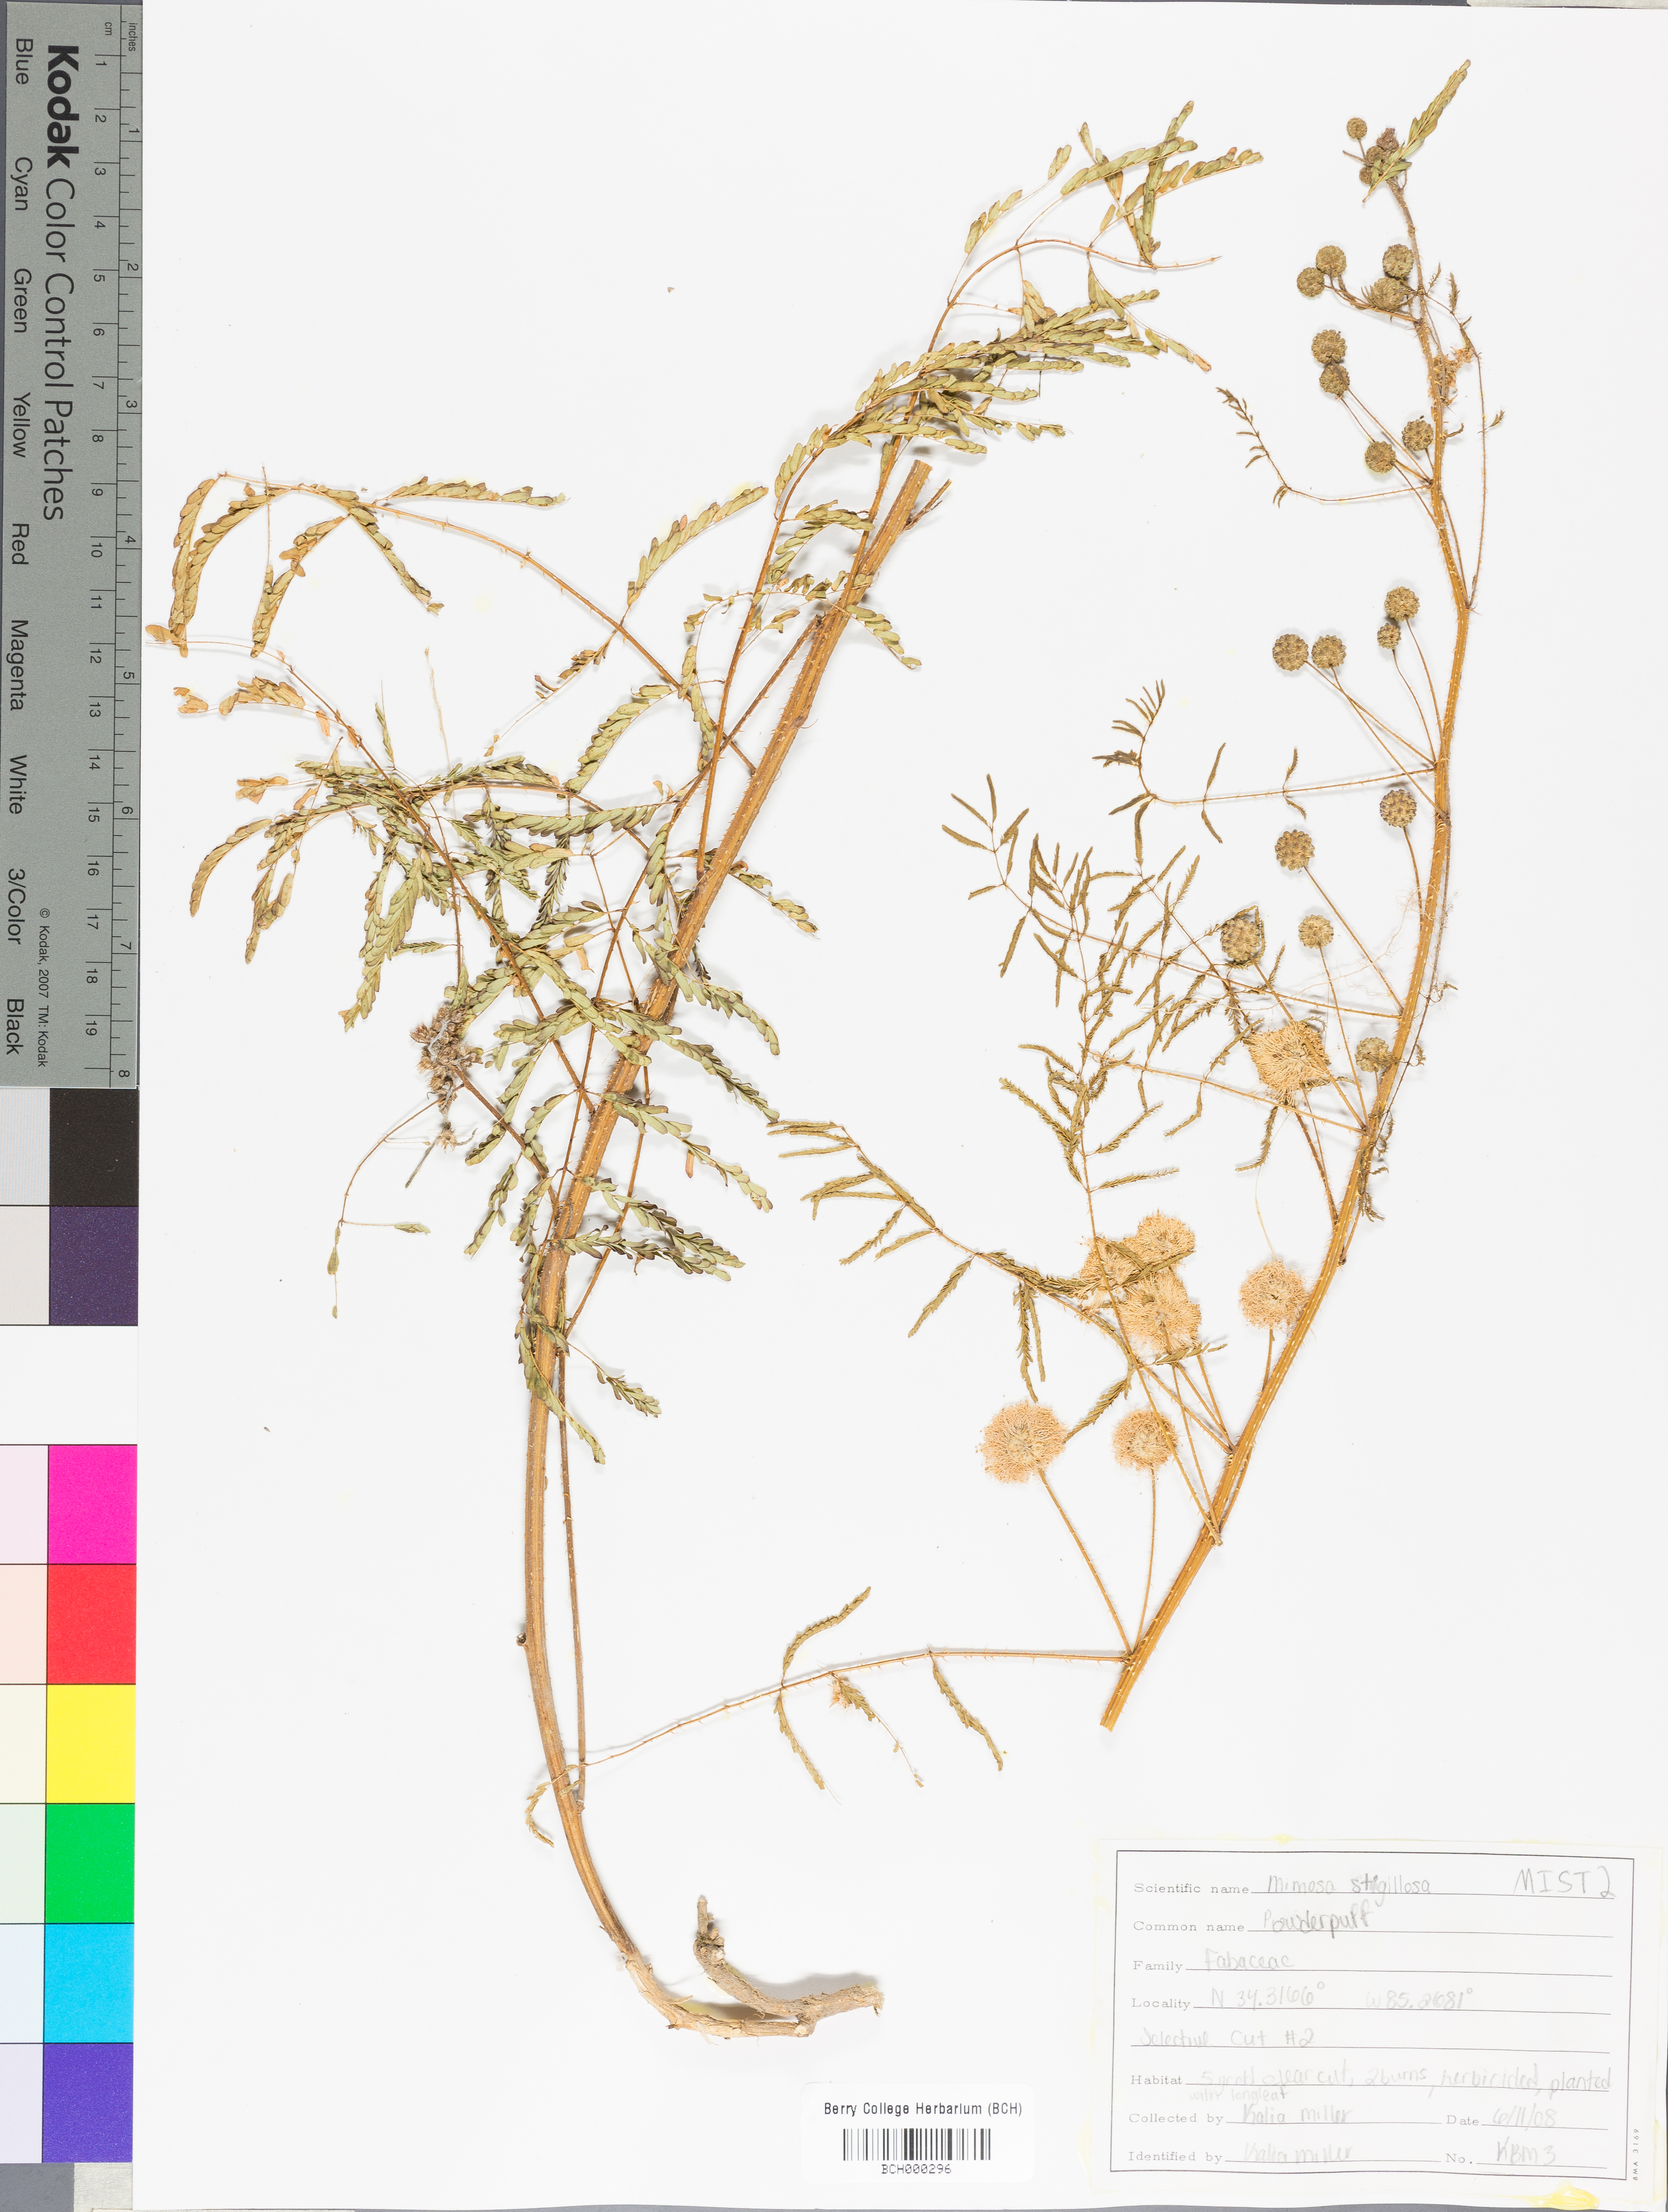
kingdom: Plantae
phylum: Tracheophyta
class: Magnoliopsida
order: Fabales
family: Fabaceae
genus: Mimosa
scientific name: Mimosa strigillosa
